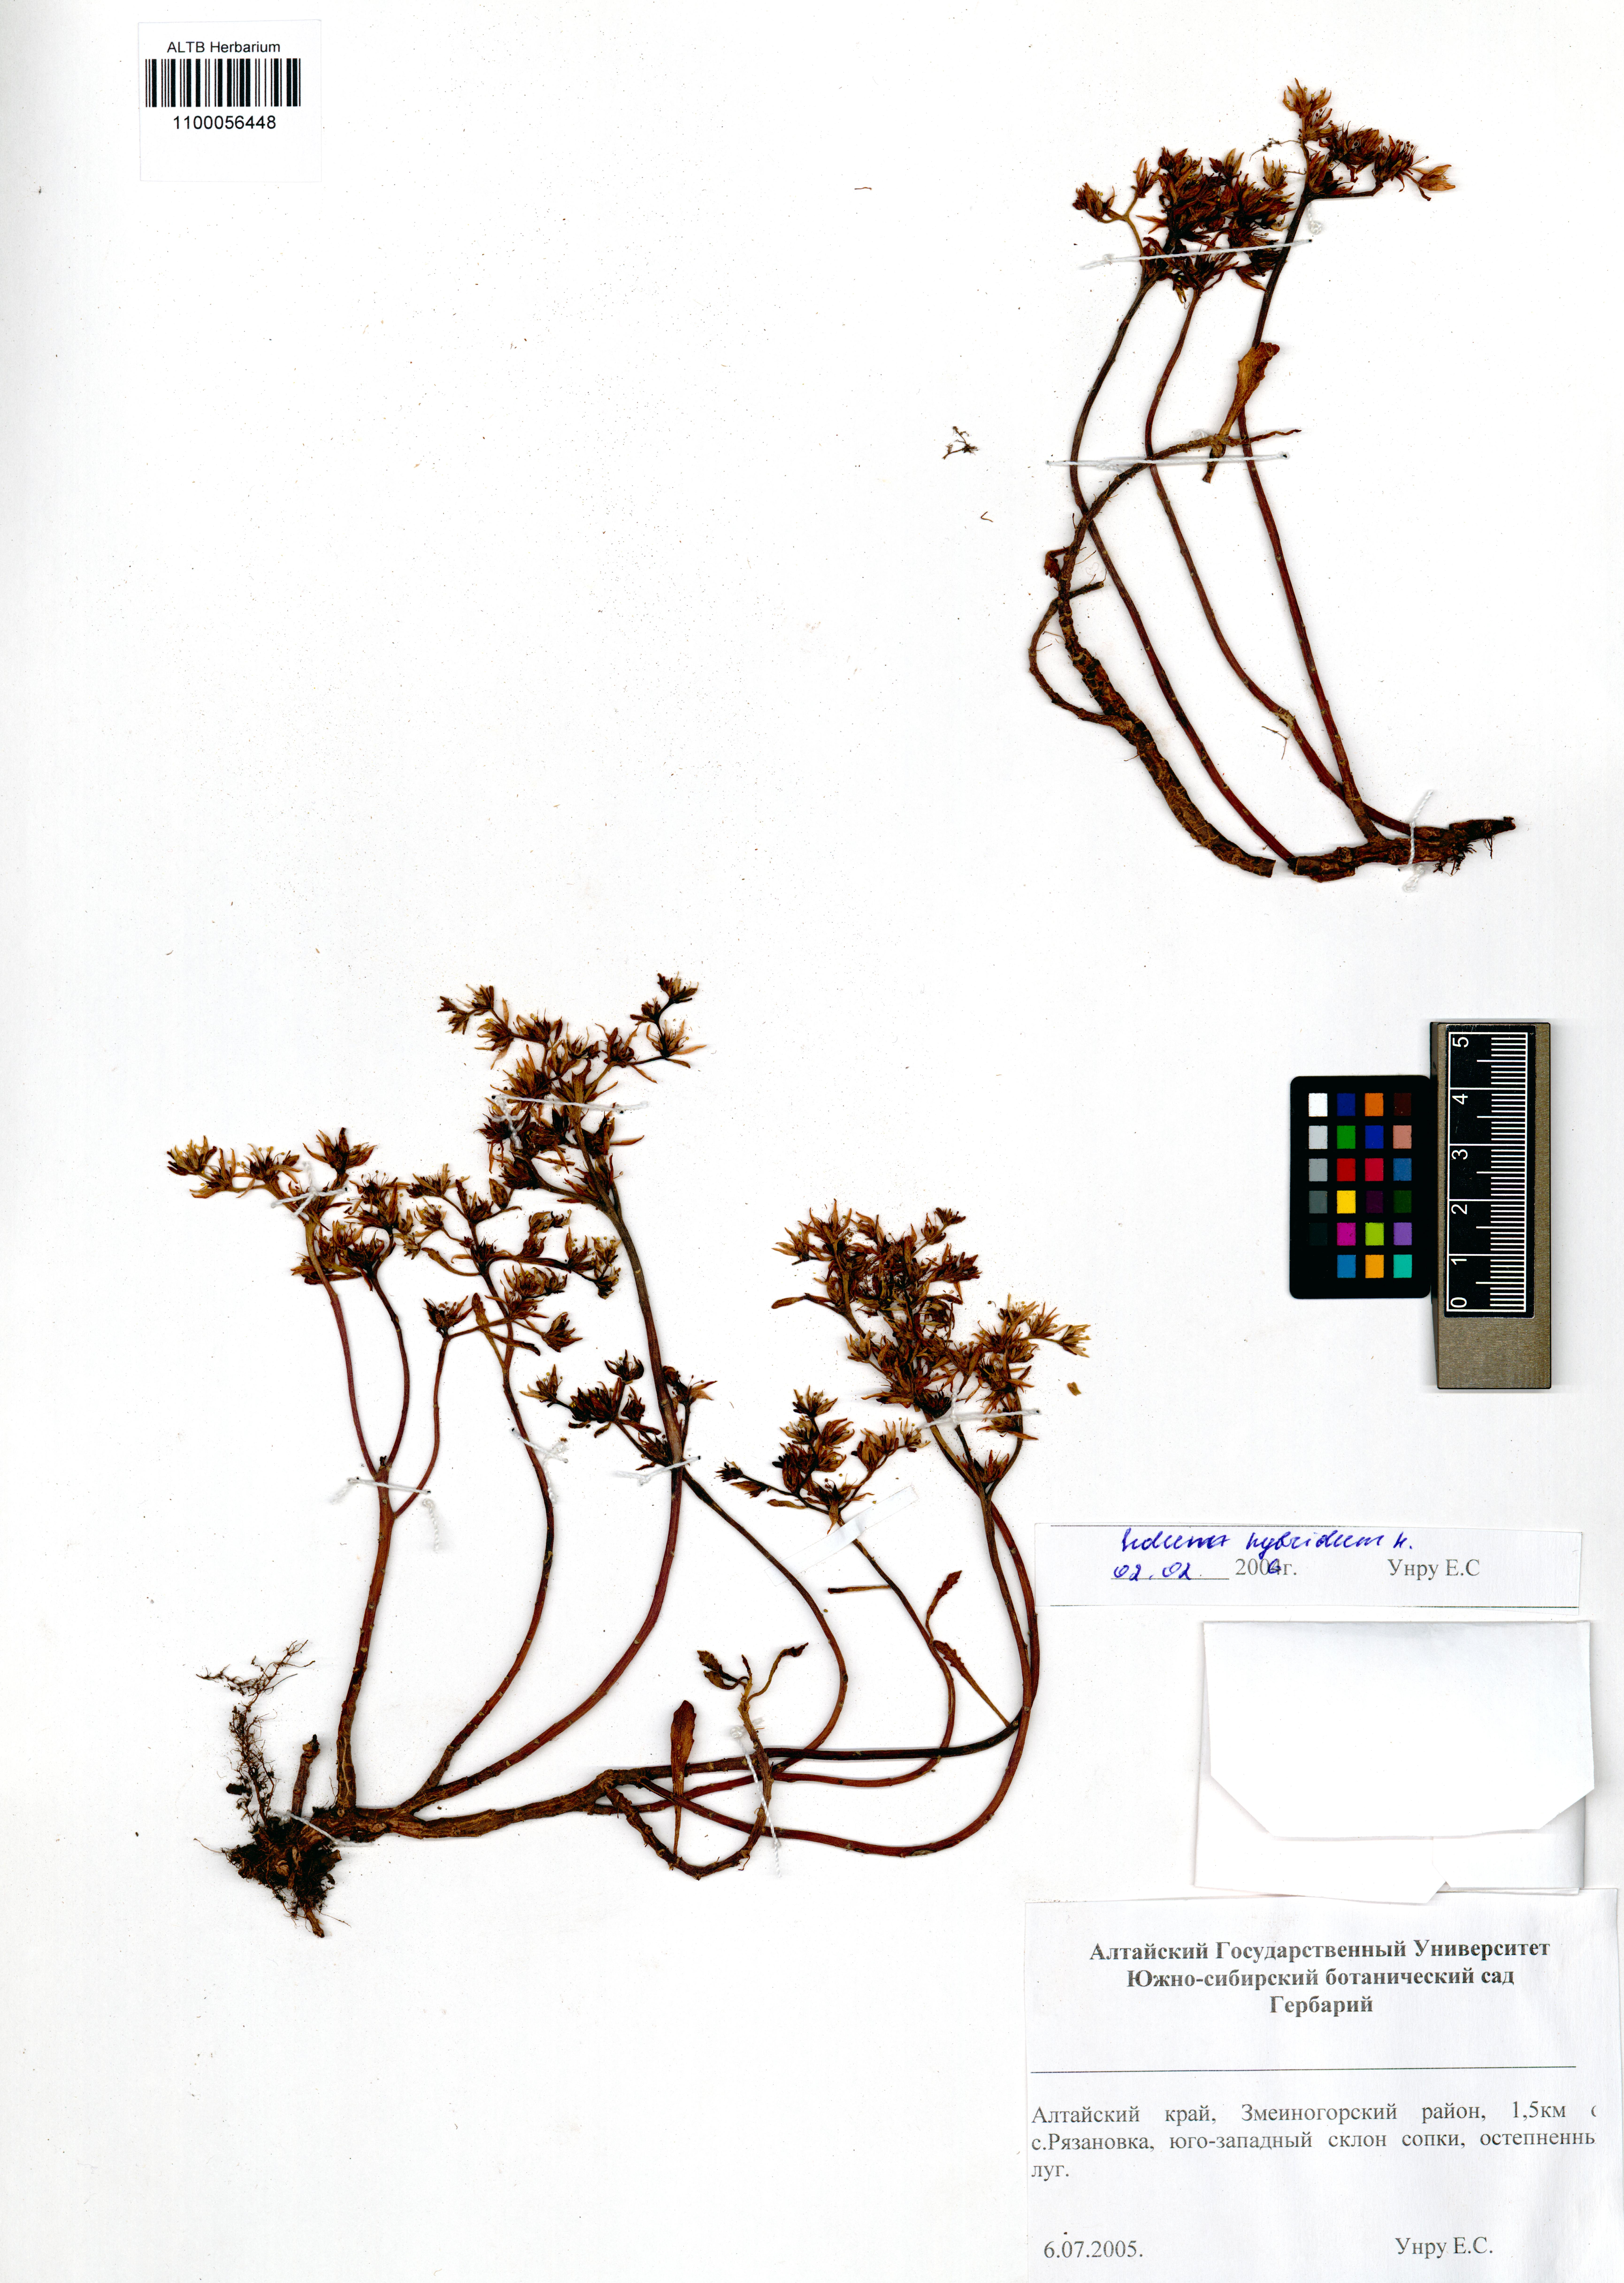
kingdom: Plantae
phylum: Tracheophyta
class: Magnoliopsida
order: Saxifragales
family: Crassulaceae
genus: Phedimus
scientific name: Phedimus hybridus
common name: Hybrid stonecrop
